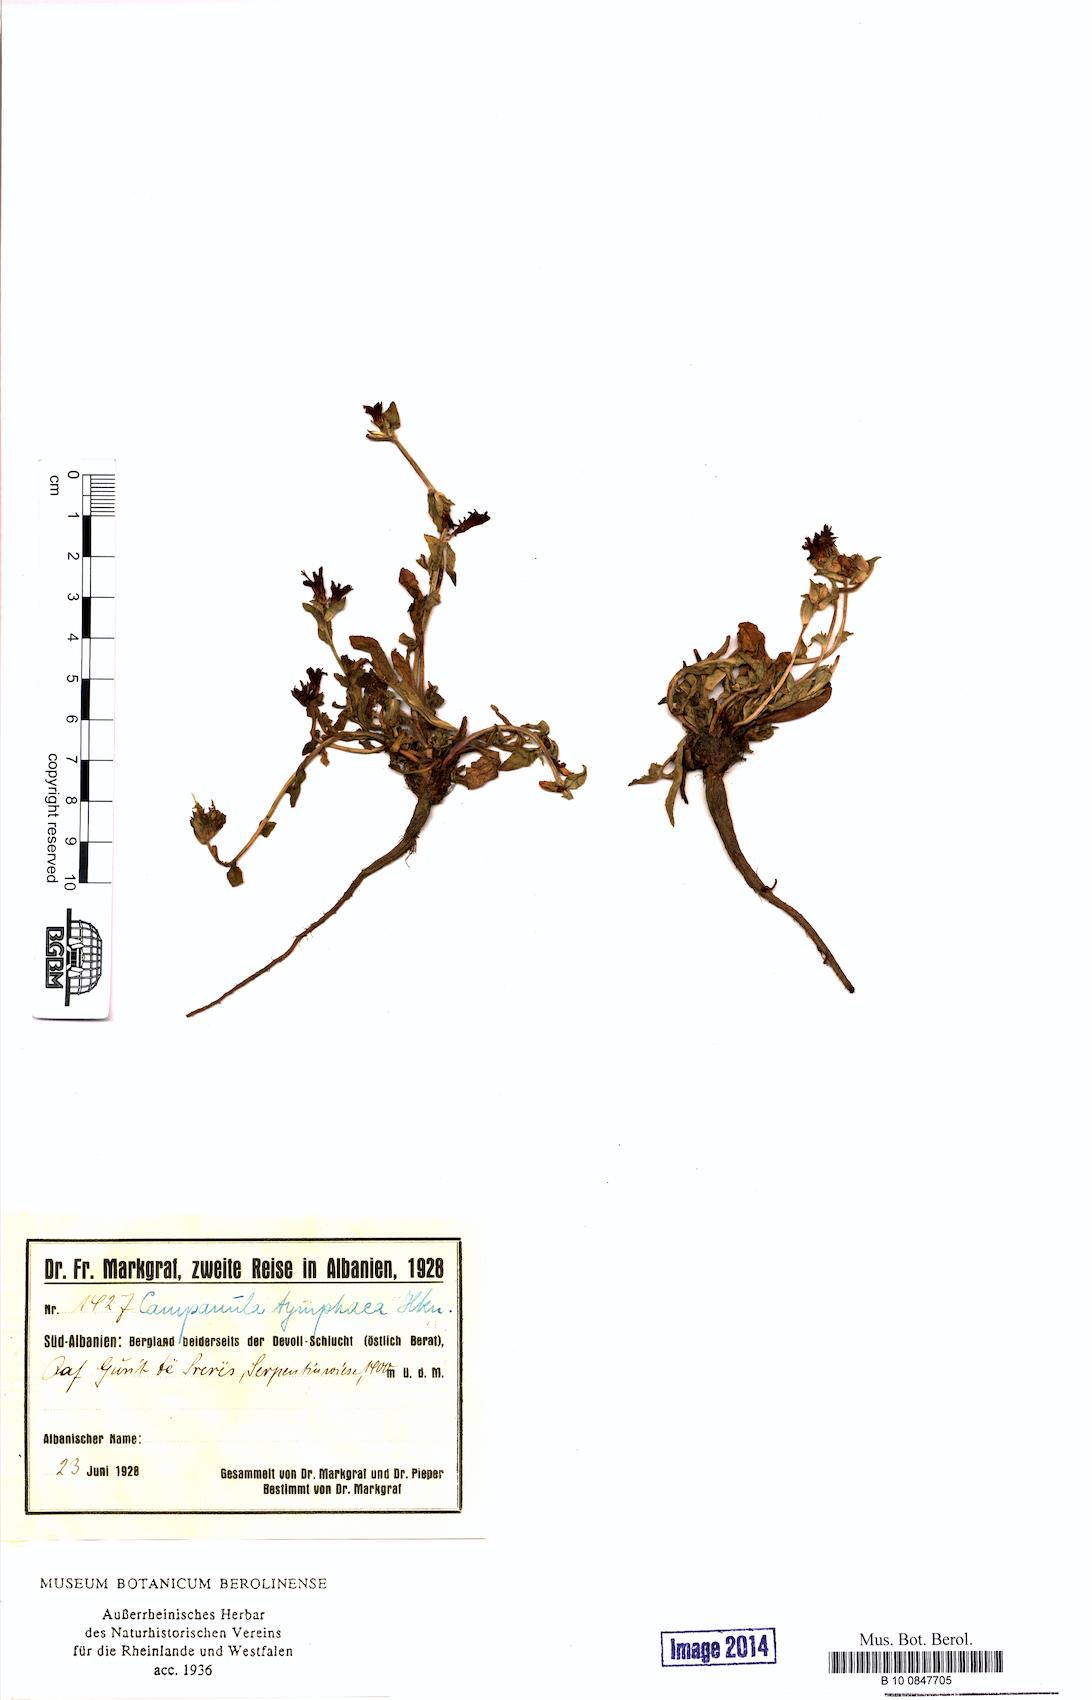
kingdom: Plantae
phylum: Tracheophyta
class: Magnoliopsida
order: Asterales
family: Campanulaceae
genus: Campanula
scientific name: Campanula tymphaea
